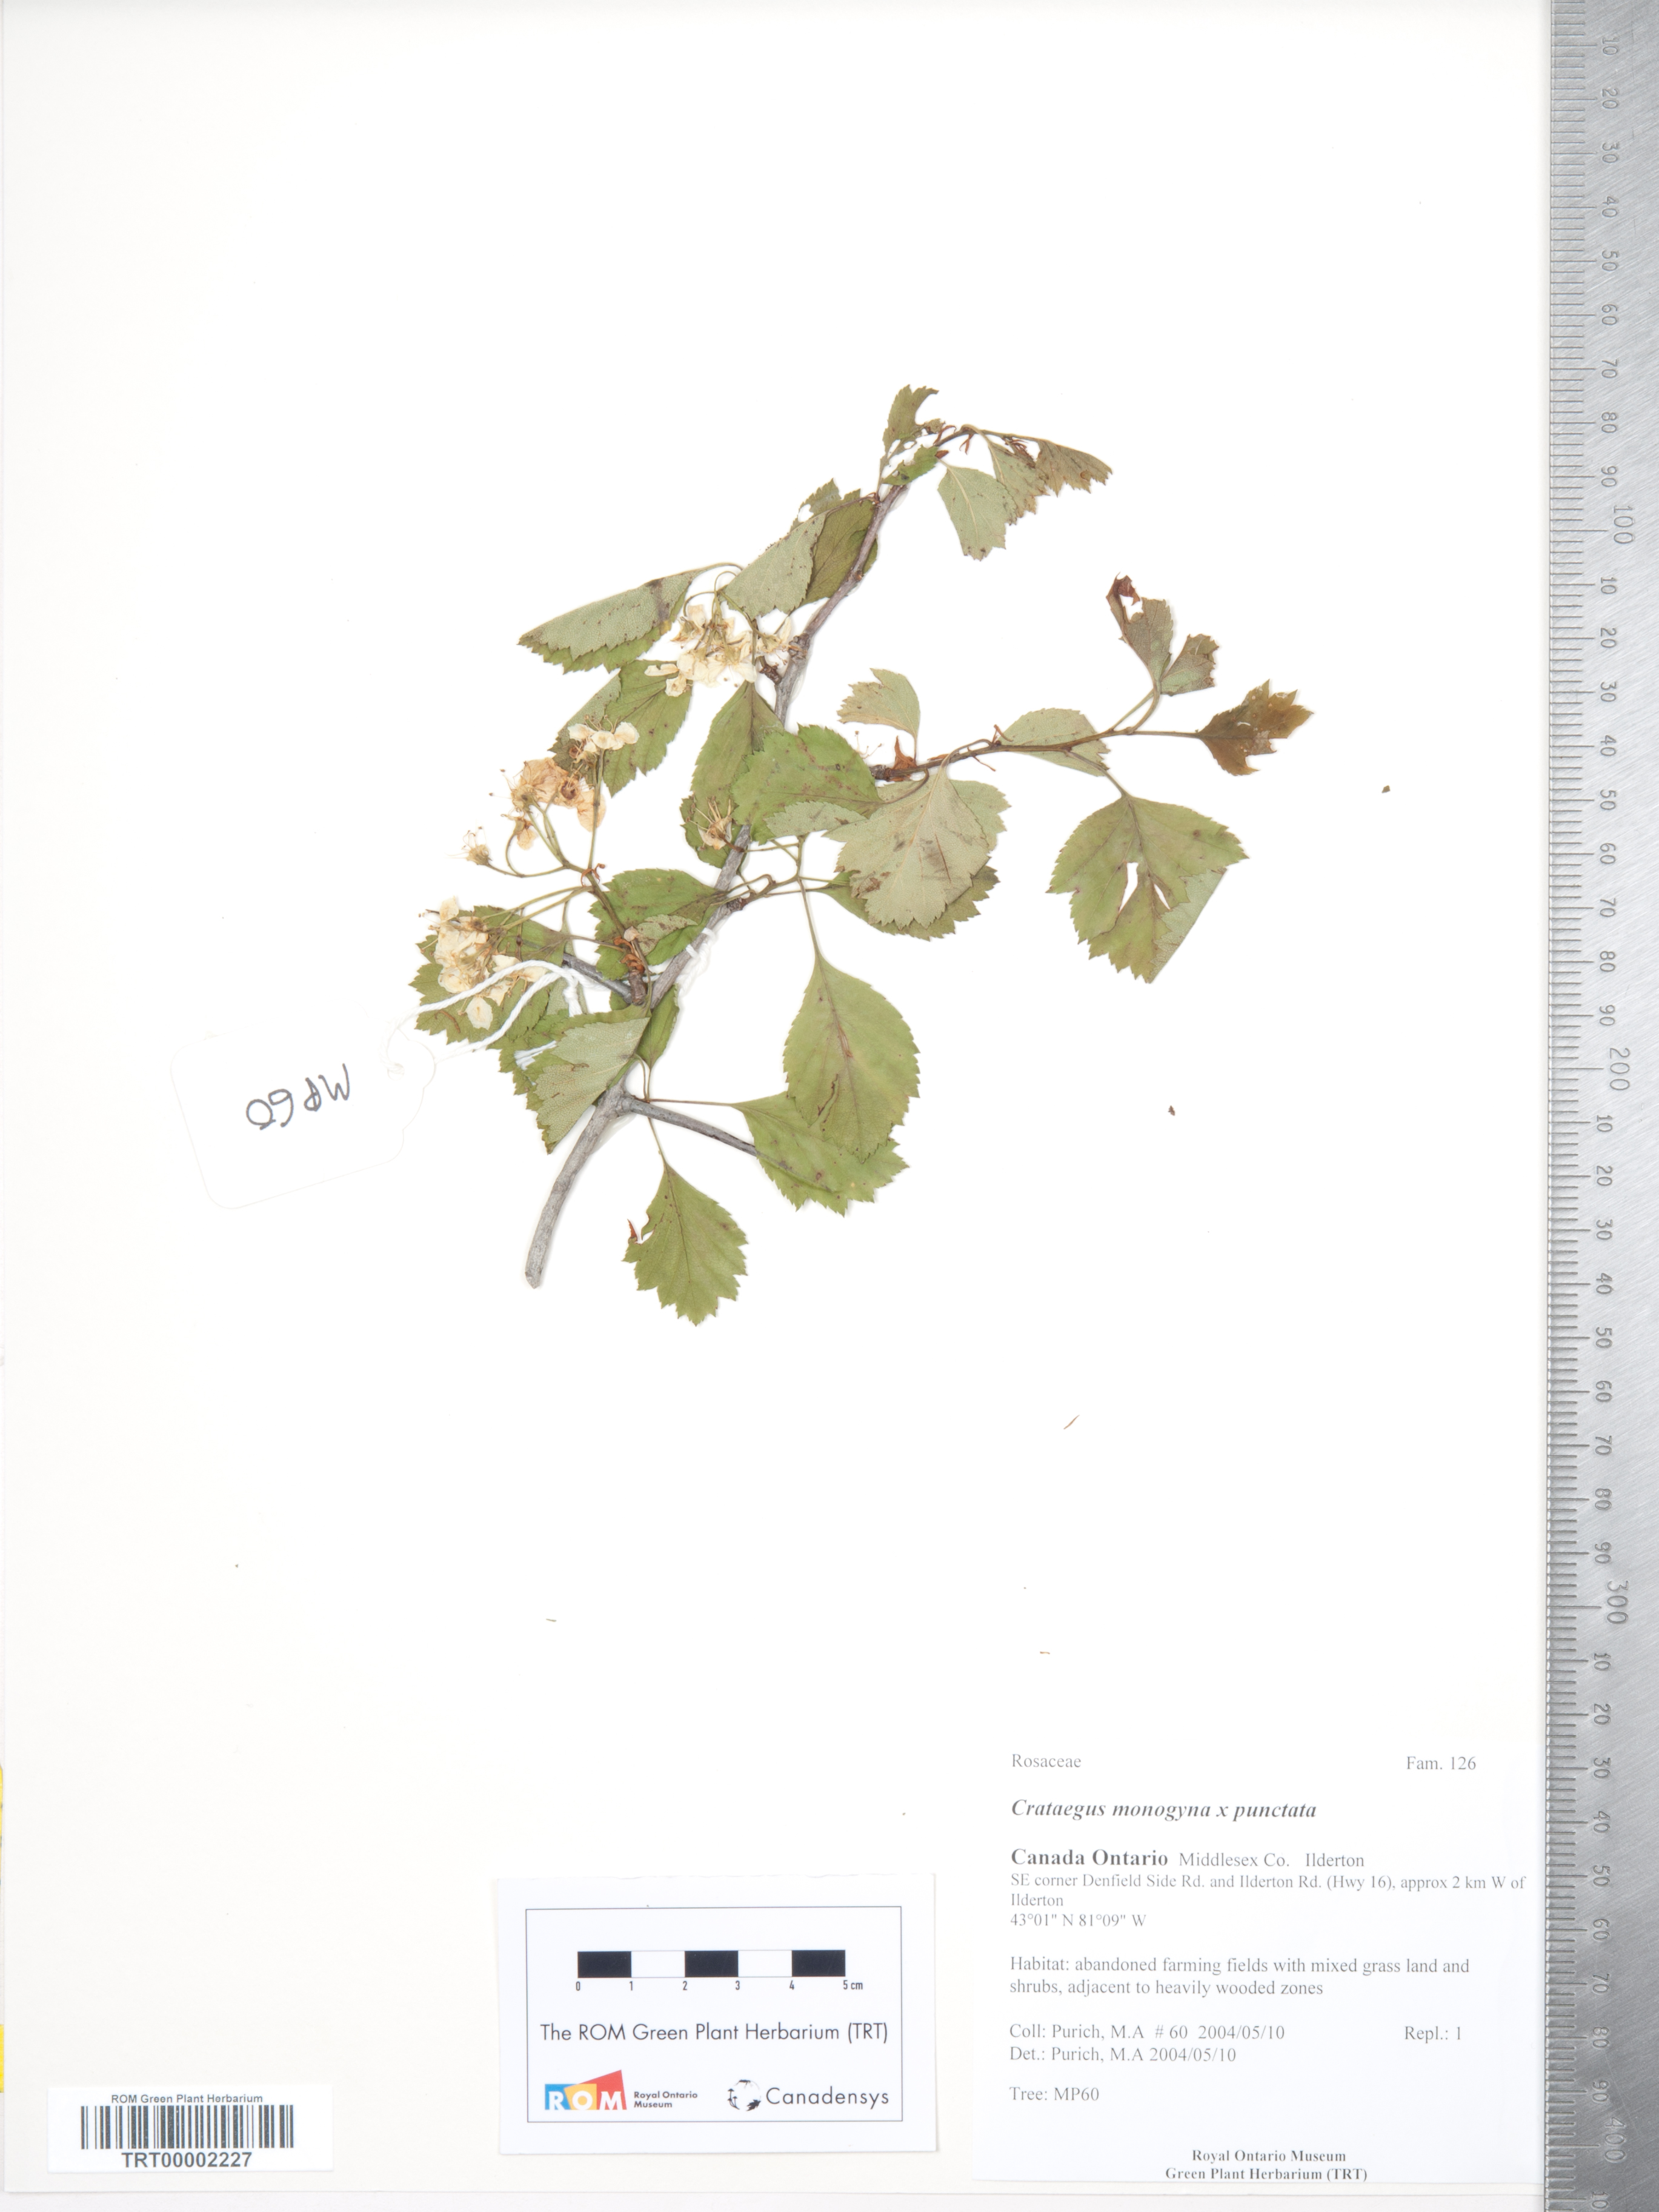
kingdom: Plantae
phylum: Tracheophyta
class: Magnoliopsida
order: Rosales
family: Rosaceae
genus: Crataegus
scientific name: Crataegus dodgei
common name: Dodge's hawthorn
